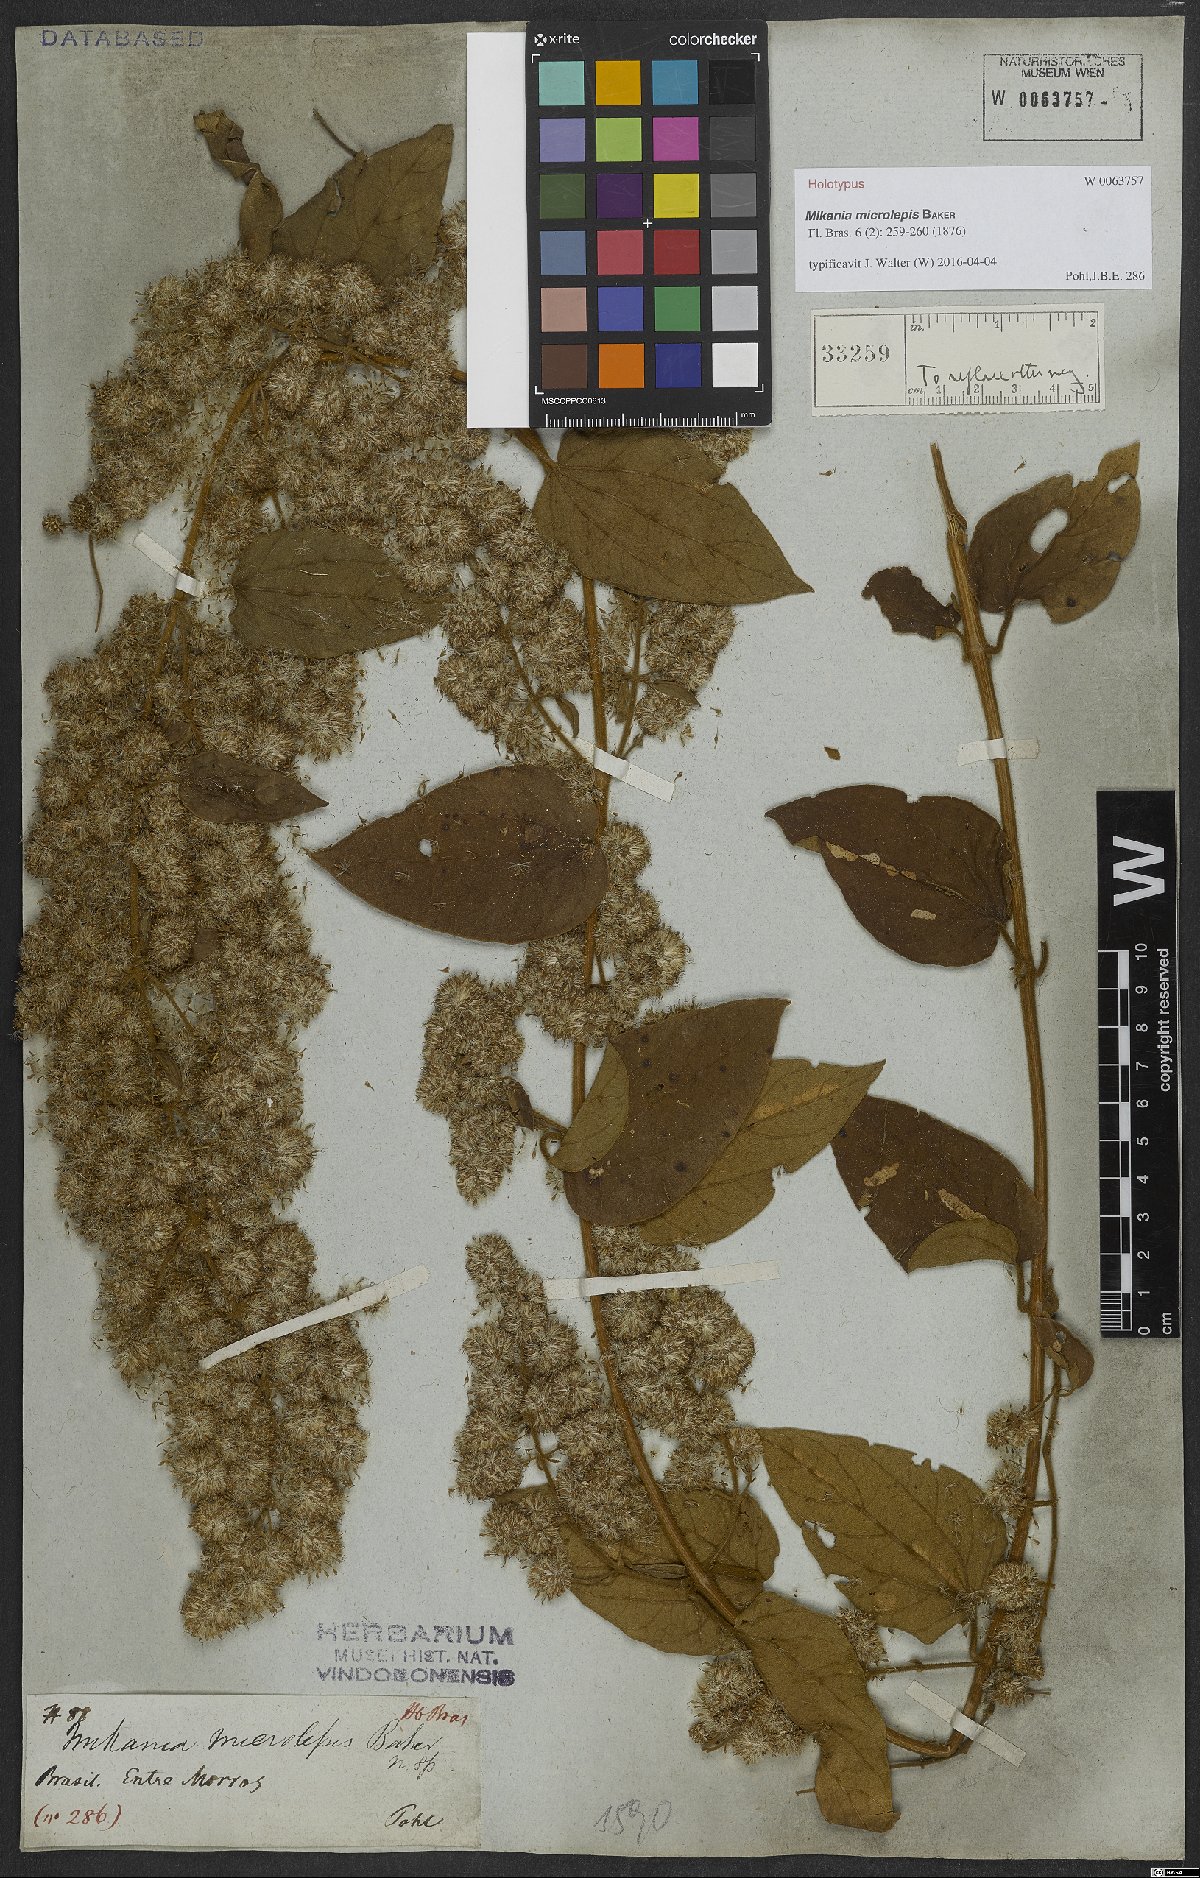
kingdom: Plantae
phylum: Tracheophyta
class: Magnoliopsida
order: Asterales
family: Asteraceae
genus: Mikania
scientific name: Mikania microlepis
